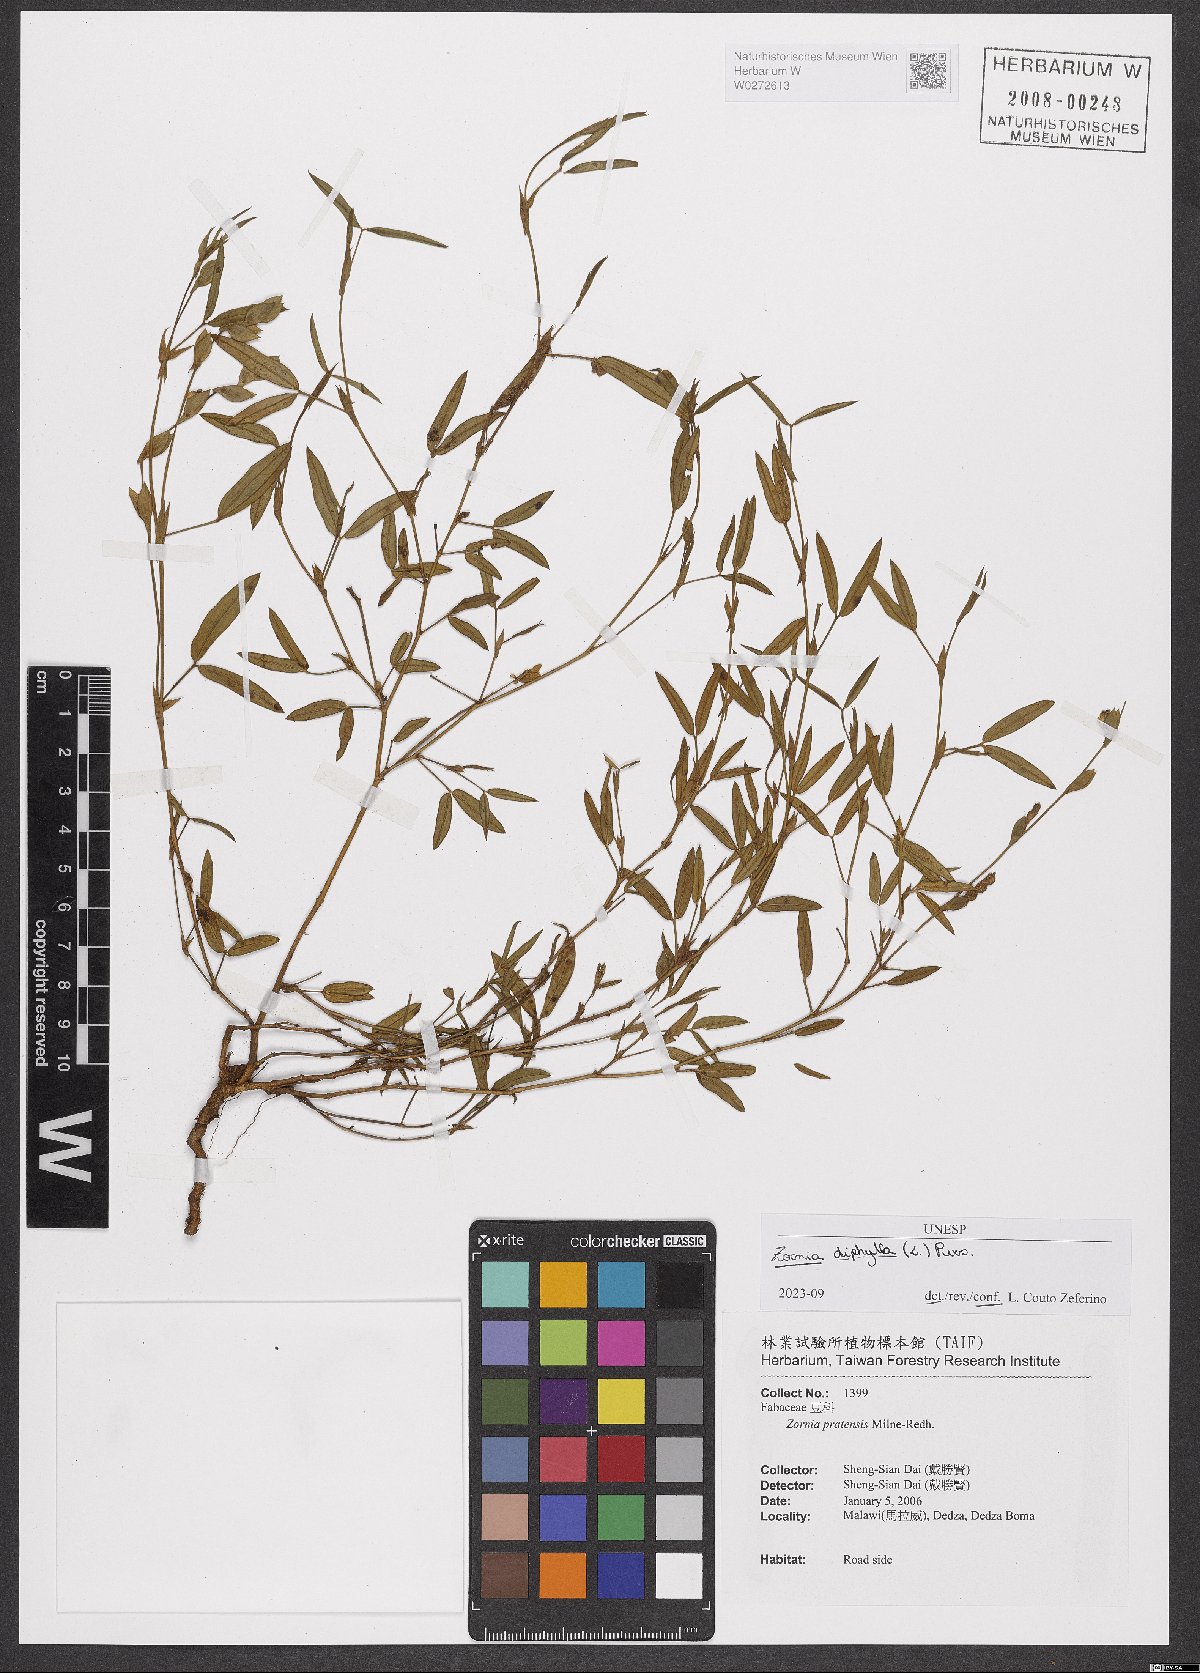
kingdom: Plantae
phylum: Tracheophyta
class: Magnoliopsida
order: Fabales
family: Fabaceae
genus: Zornia
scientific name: Zornia diphylla
